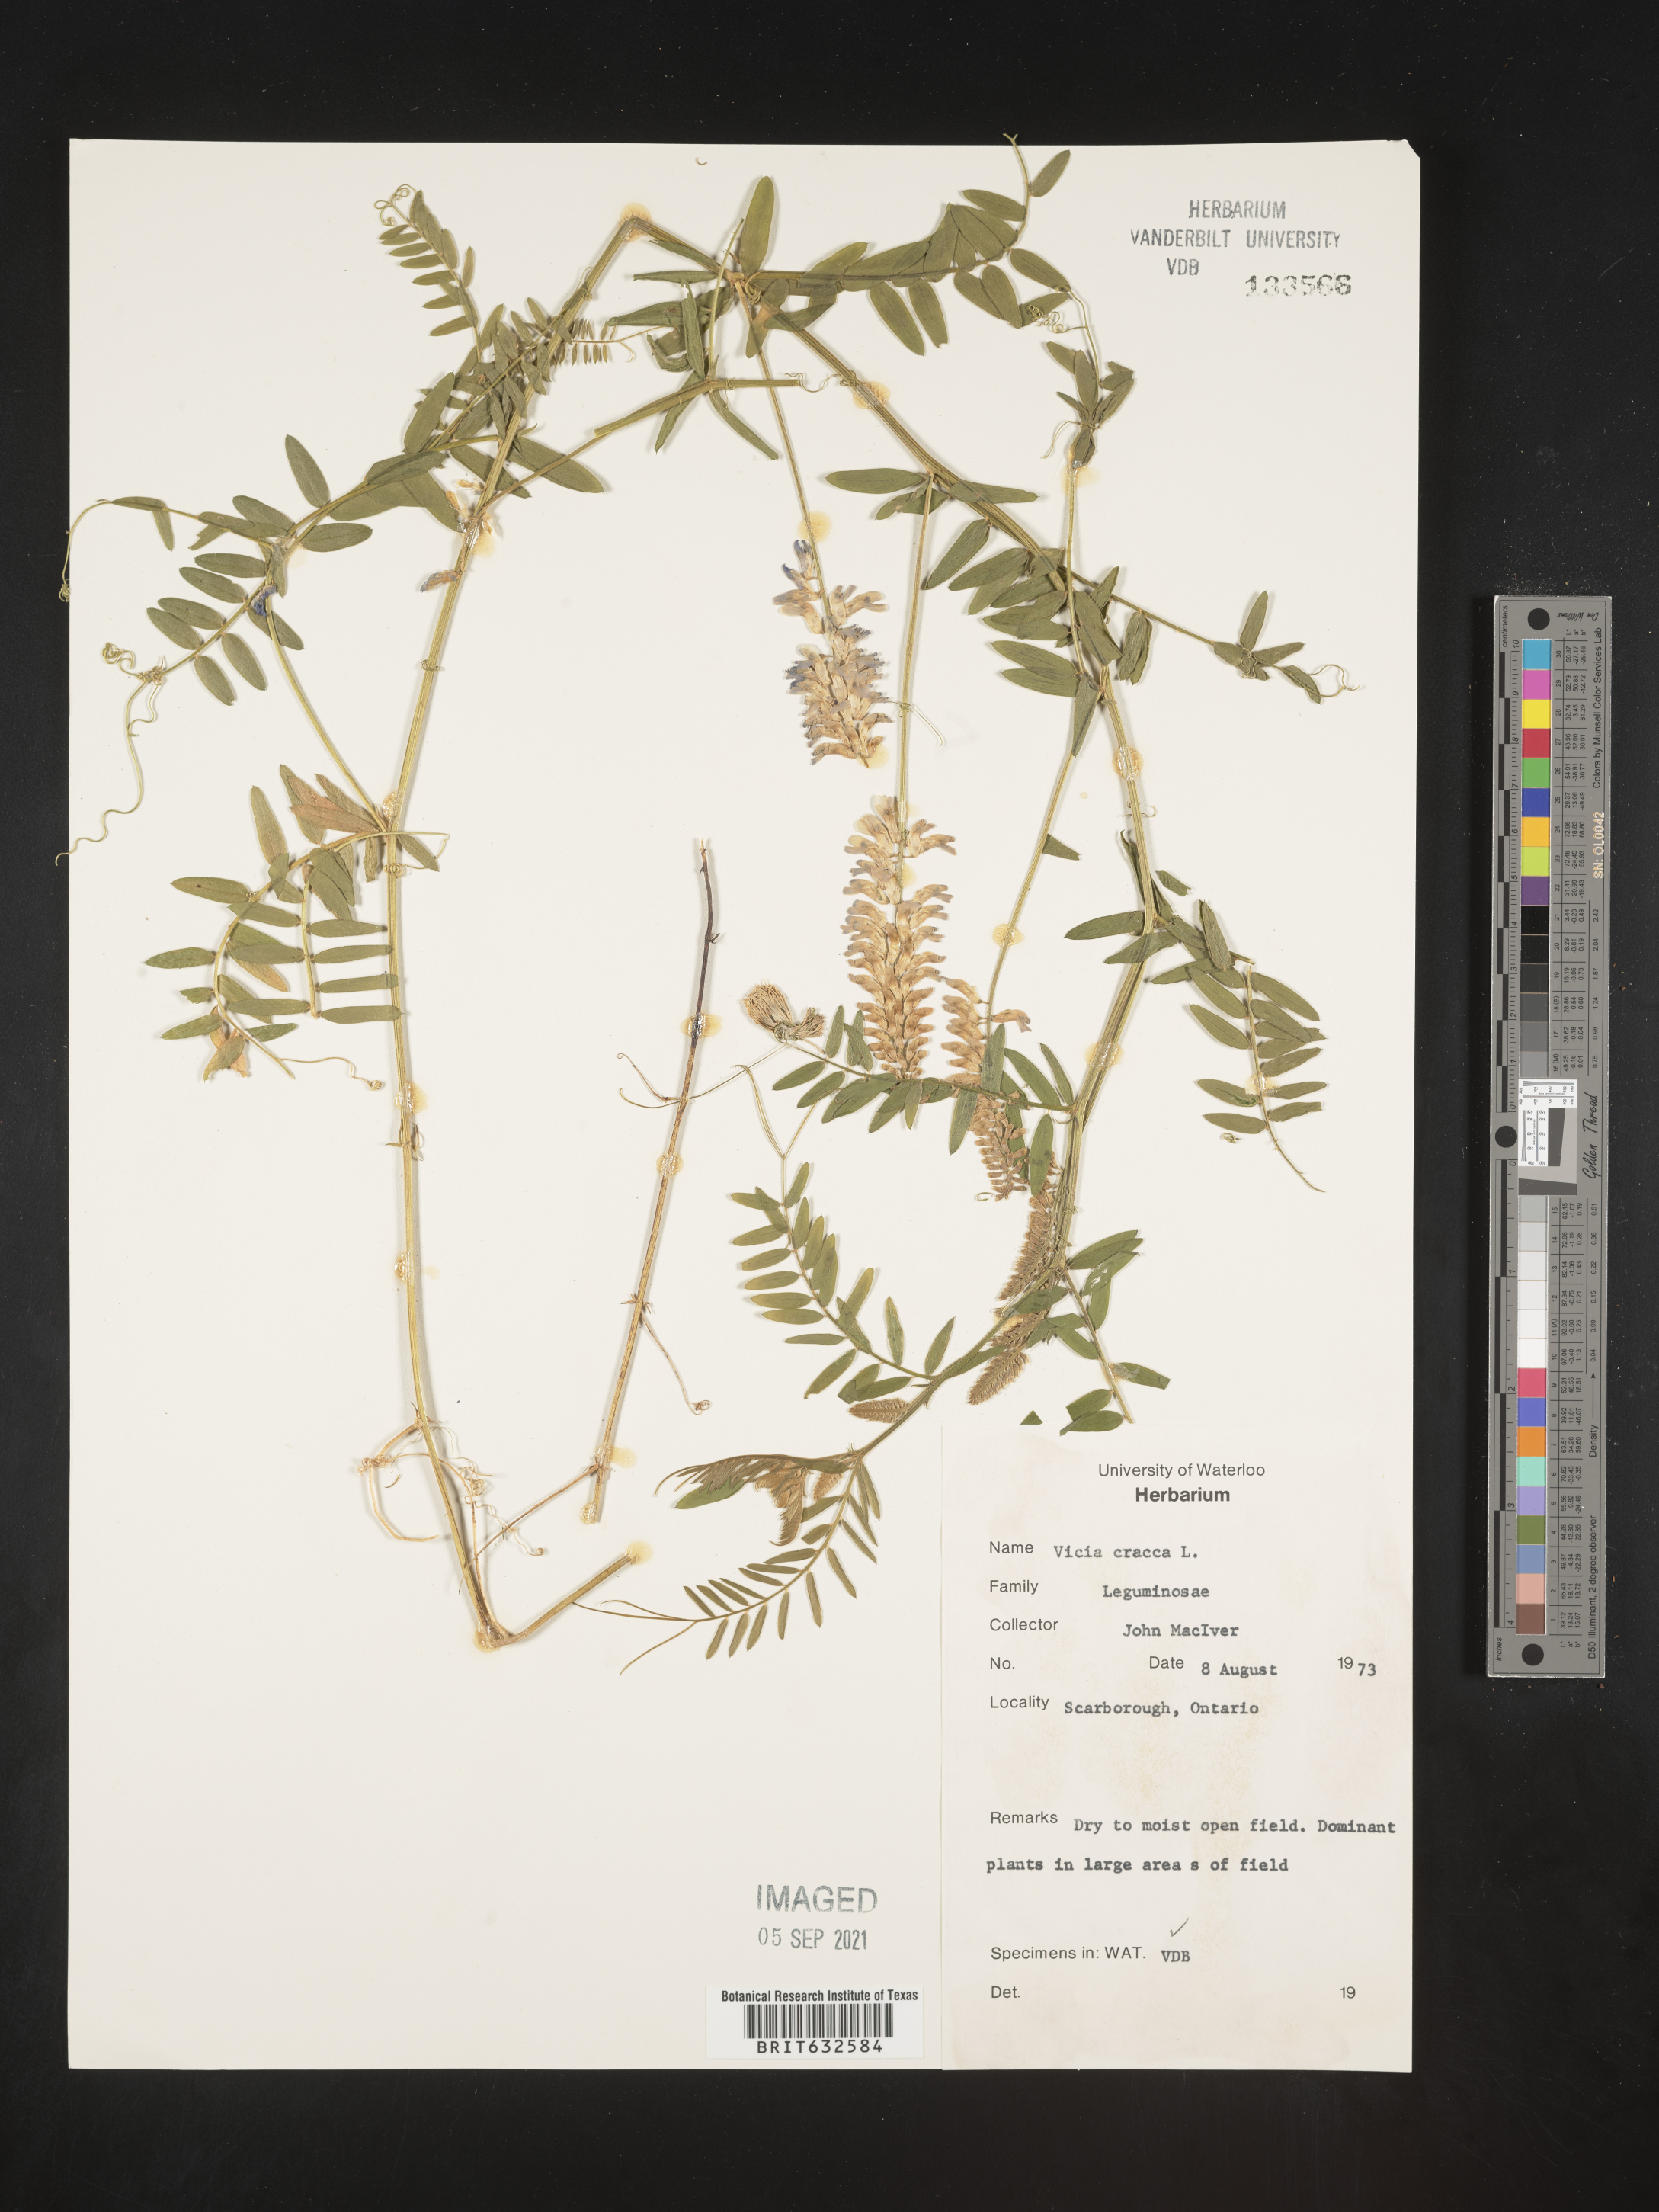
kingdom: Plantae
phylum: Tracheophyta
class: Magnoliopsida
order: Fabales
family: Fabaceae
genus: Vicia
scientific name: Vicia
